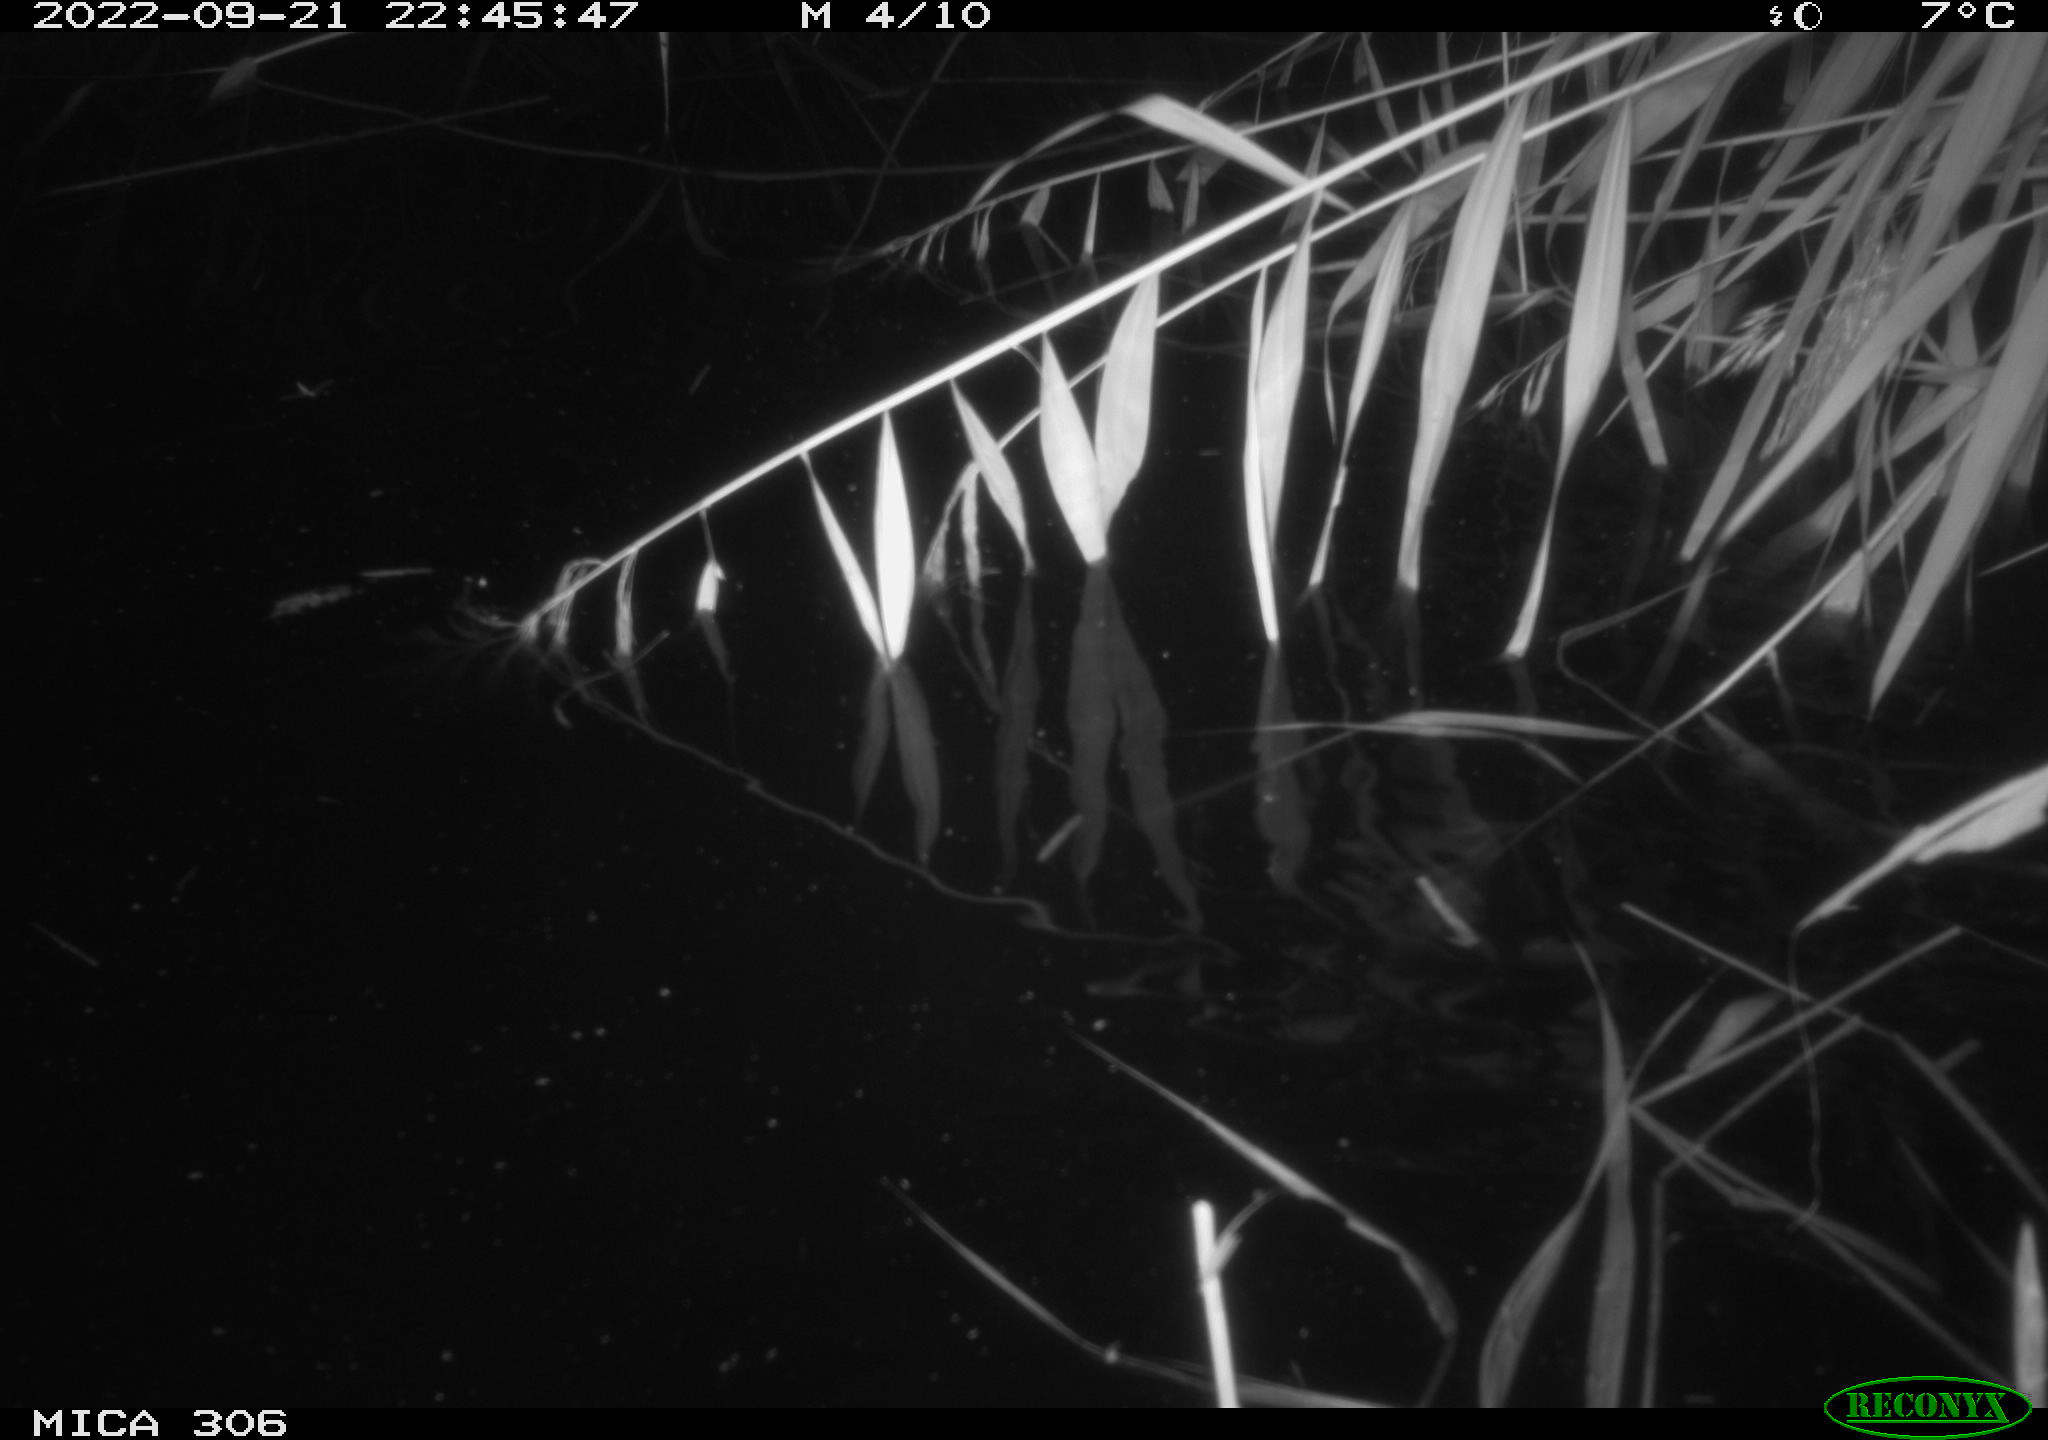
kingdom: Animalia
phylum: Chordata
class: Mammalia
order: Rodentia
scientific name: Rodentia
